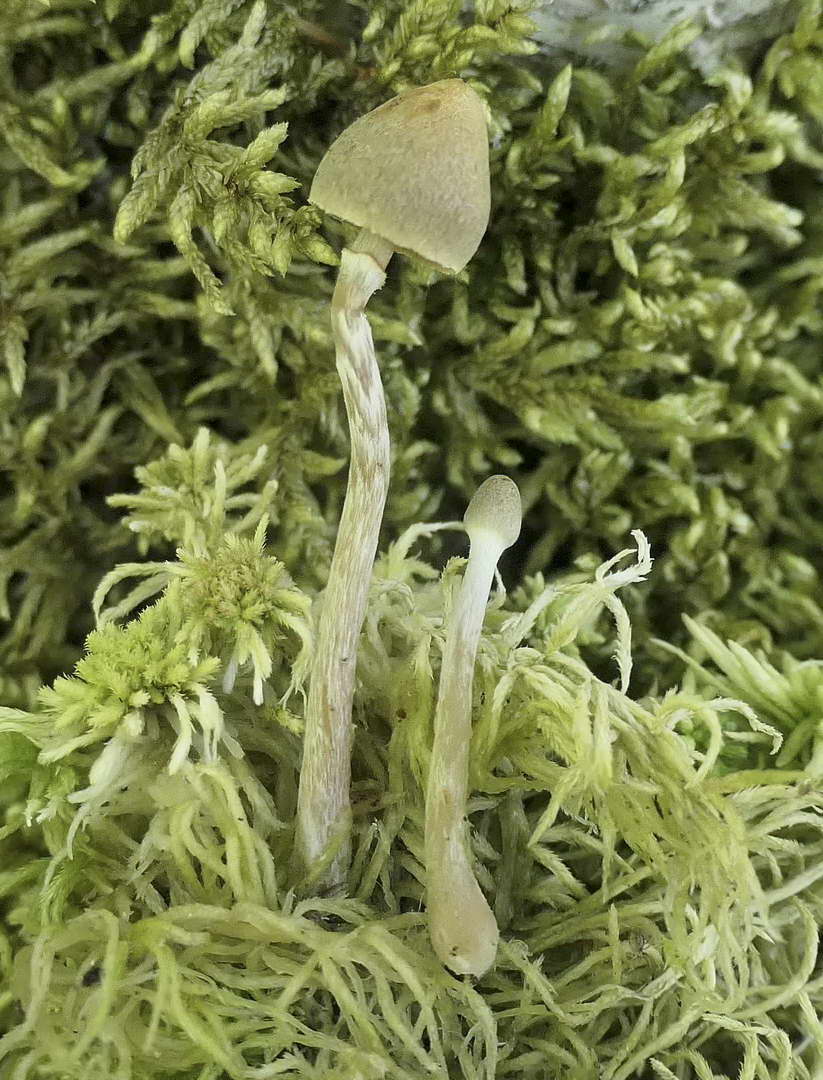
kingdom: Fungi
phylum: Basidiomycota
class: Agaricomycetes
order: Agaricales
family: Hymenogastraceae
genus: Galerina
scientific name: Galerina paludosa
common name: mose-hjelmhat
